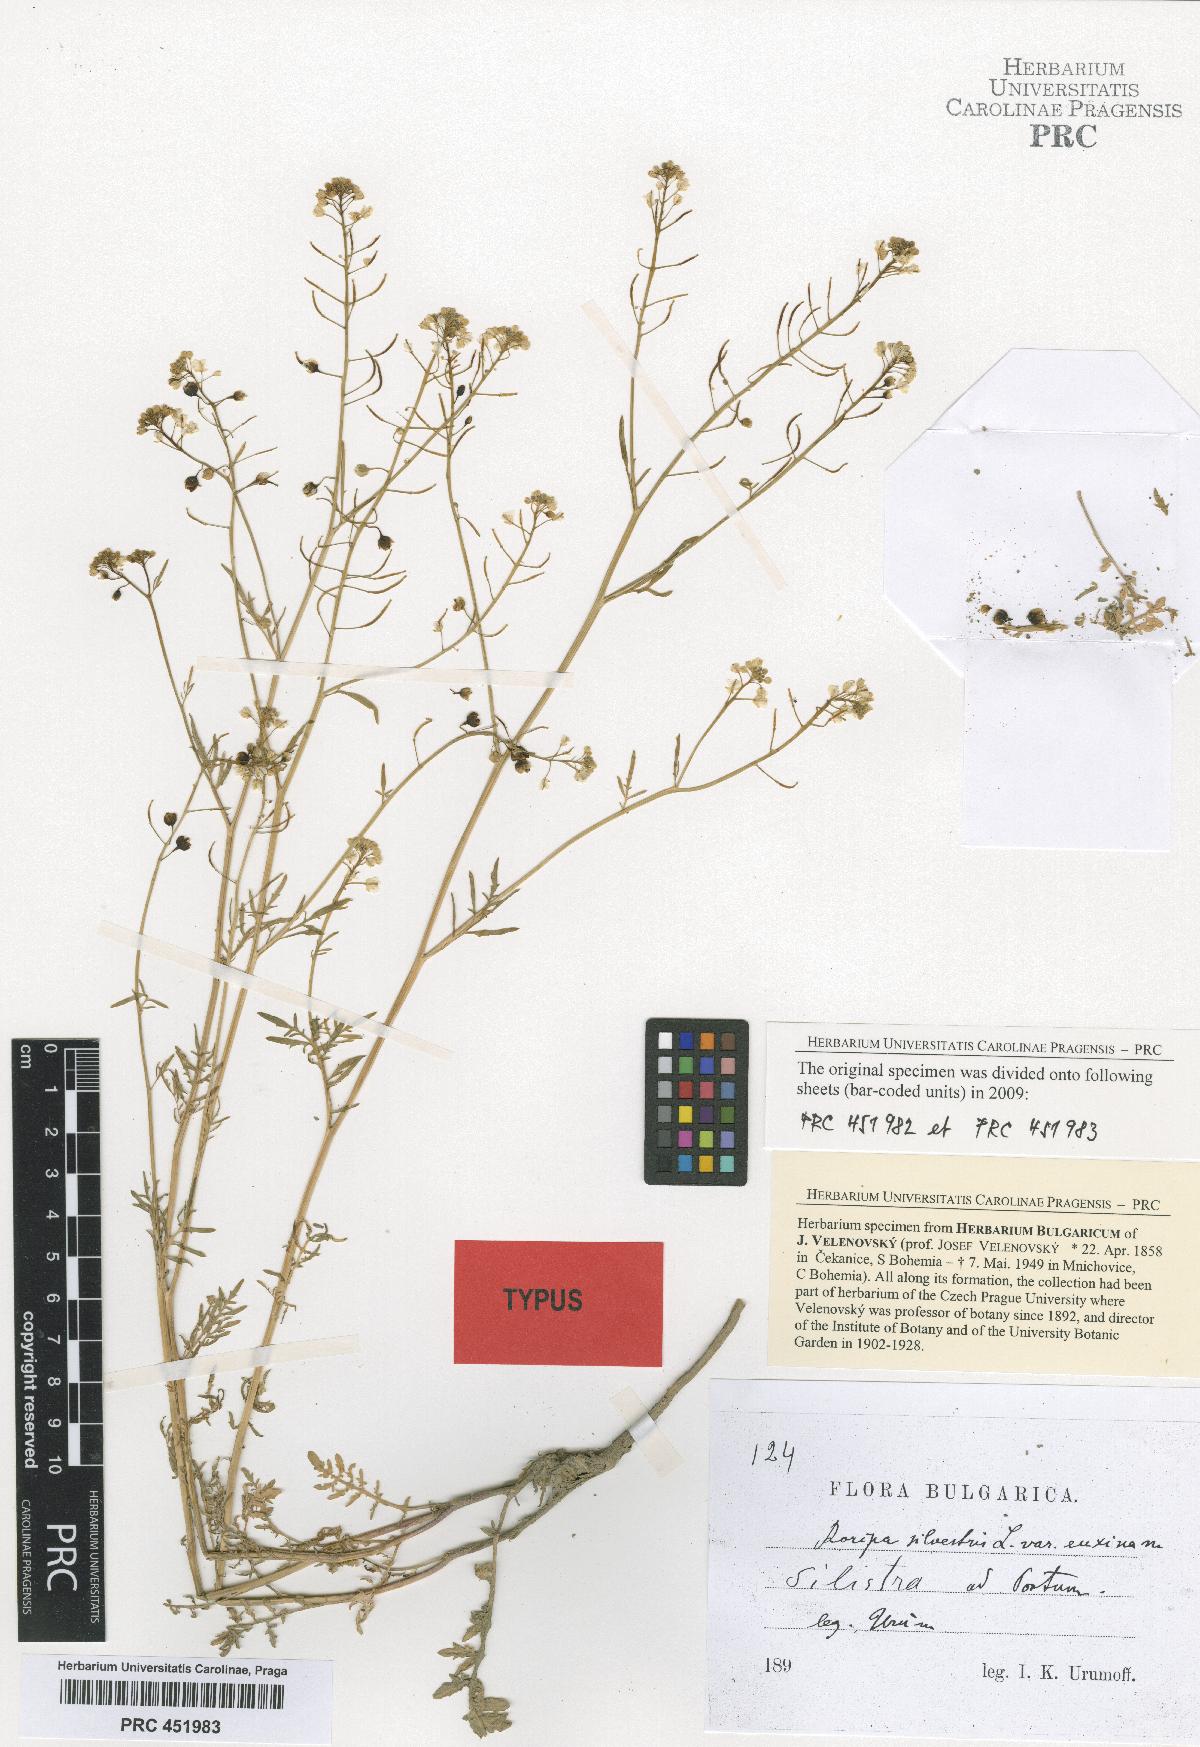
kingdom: Plantae
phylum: Tracheophyta
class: Magnoliopsida
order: Brassicales
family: Brassicaceae
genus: Rorippa
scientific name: Rorippa sylvestris
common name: Creeping yellowcress
